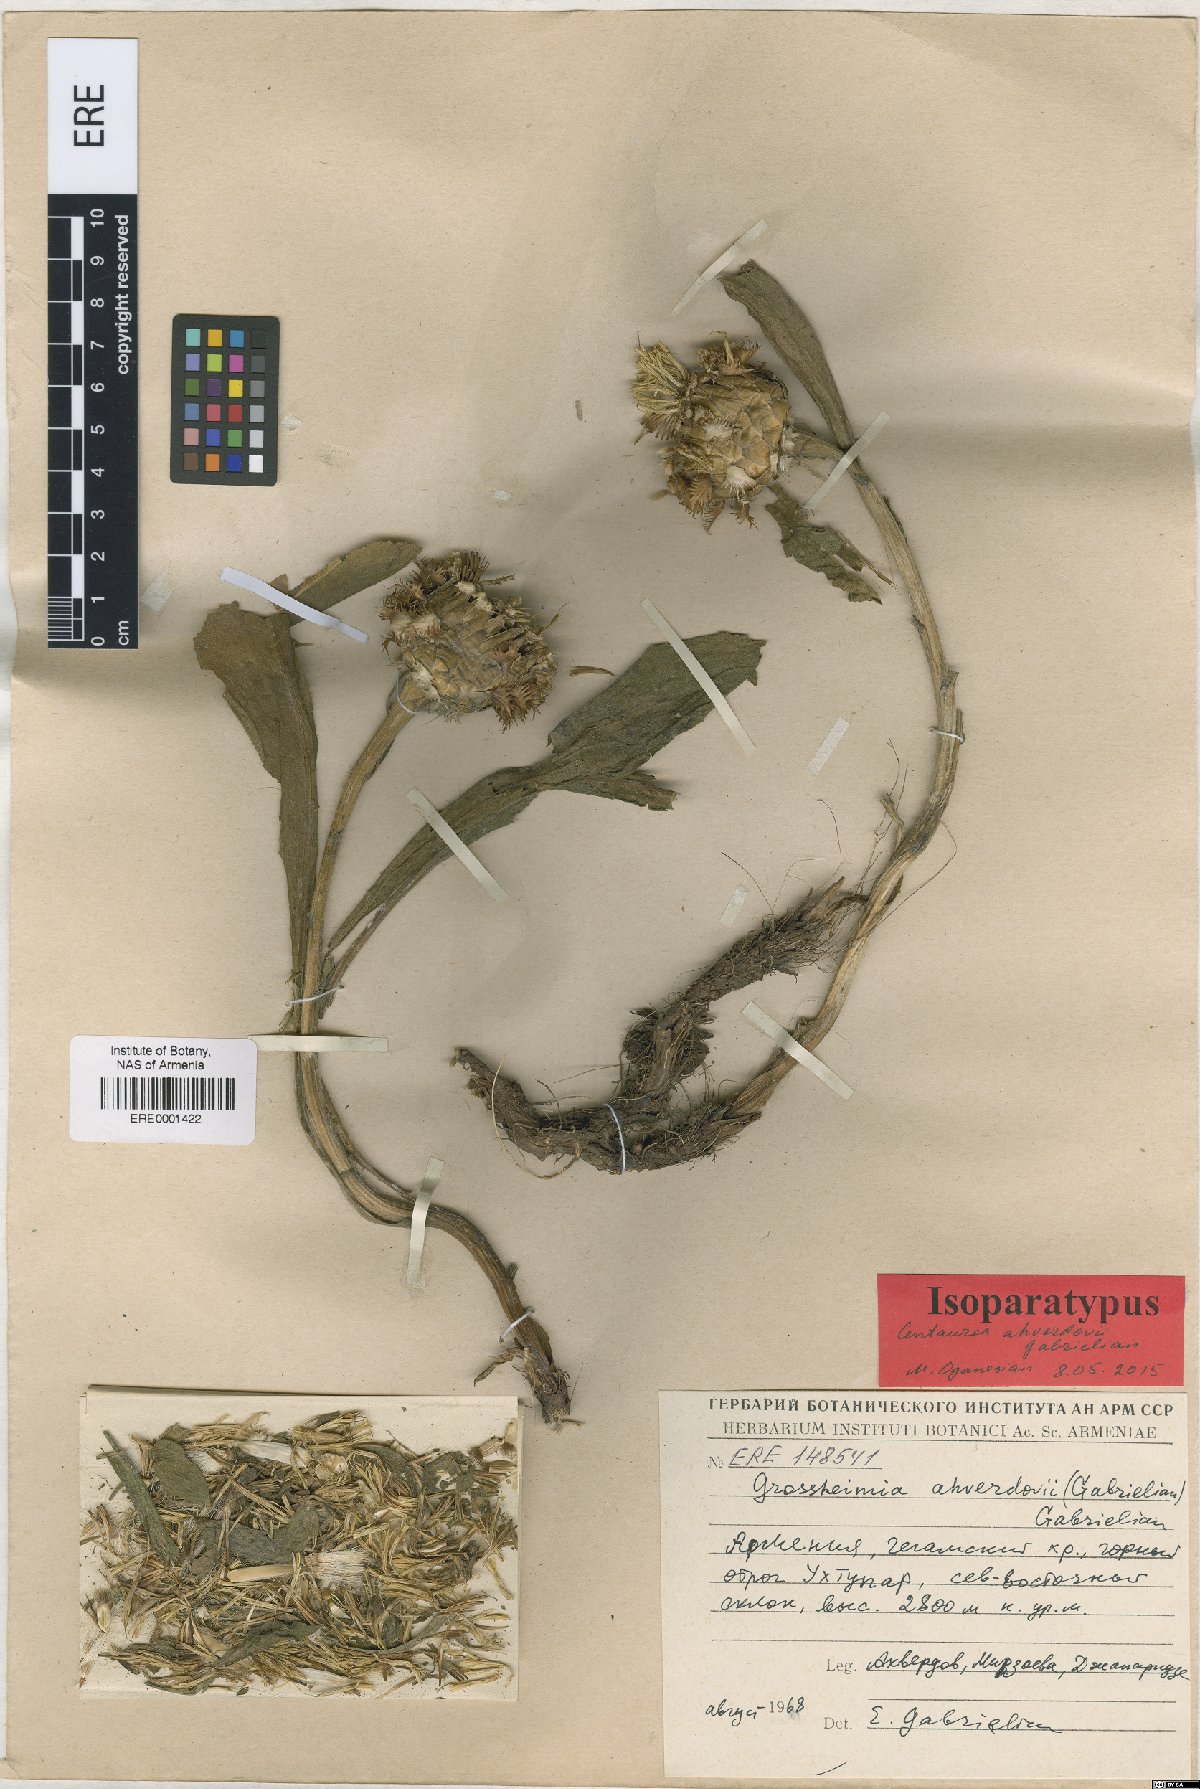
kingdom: Plantae
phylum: Tracheophyta
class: Magnoliopsida
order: Asterales
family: Asteraceae
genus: Centaurea
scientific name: Centaurea ahverdovii
